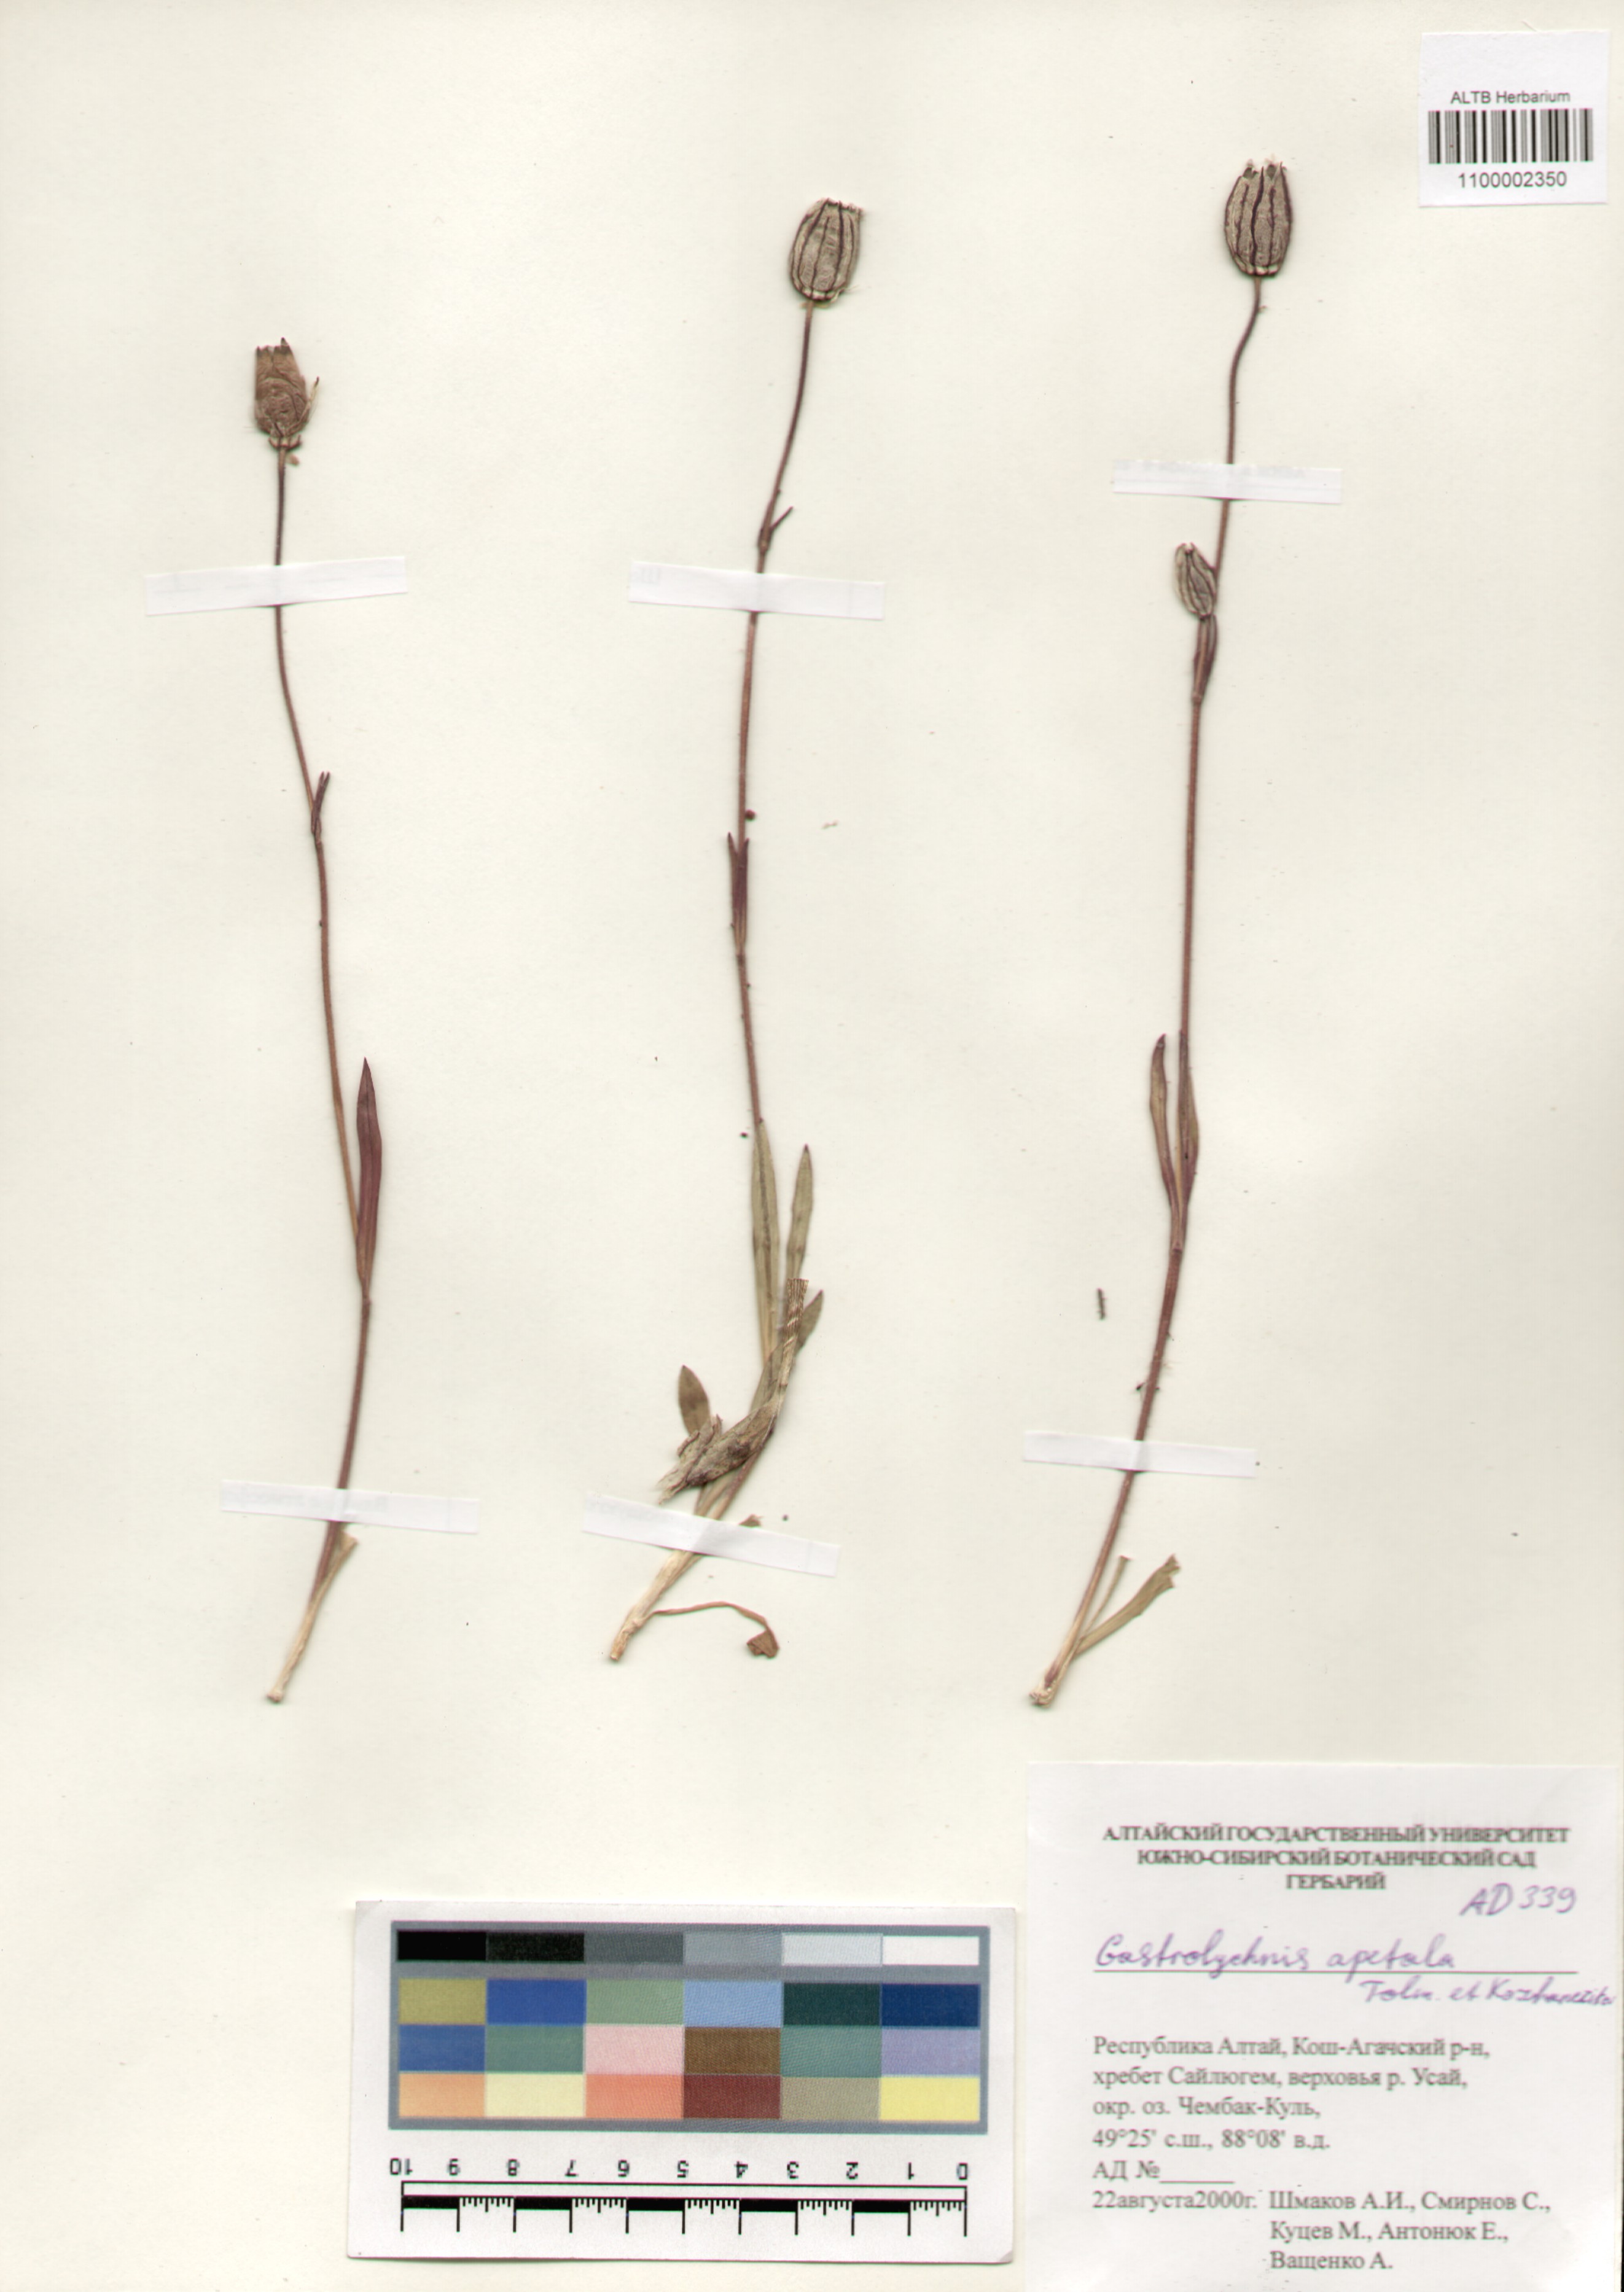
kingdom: Plantae
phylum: Tracheophyta
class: Magnoliopsida
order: Caryophyllales
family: Caryophyllaceae
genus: Silene
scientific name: Silene wahlbergella
